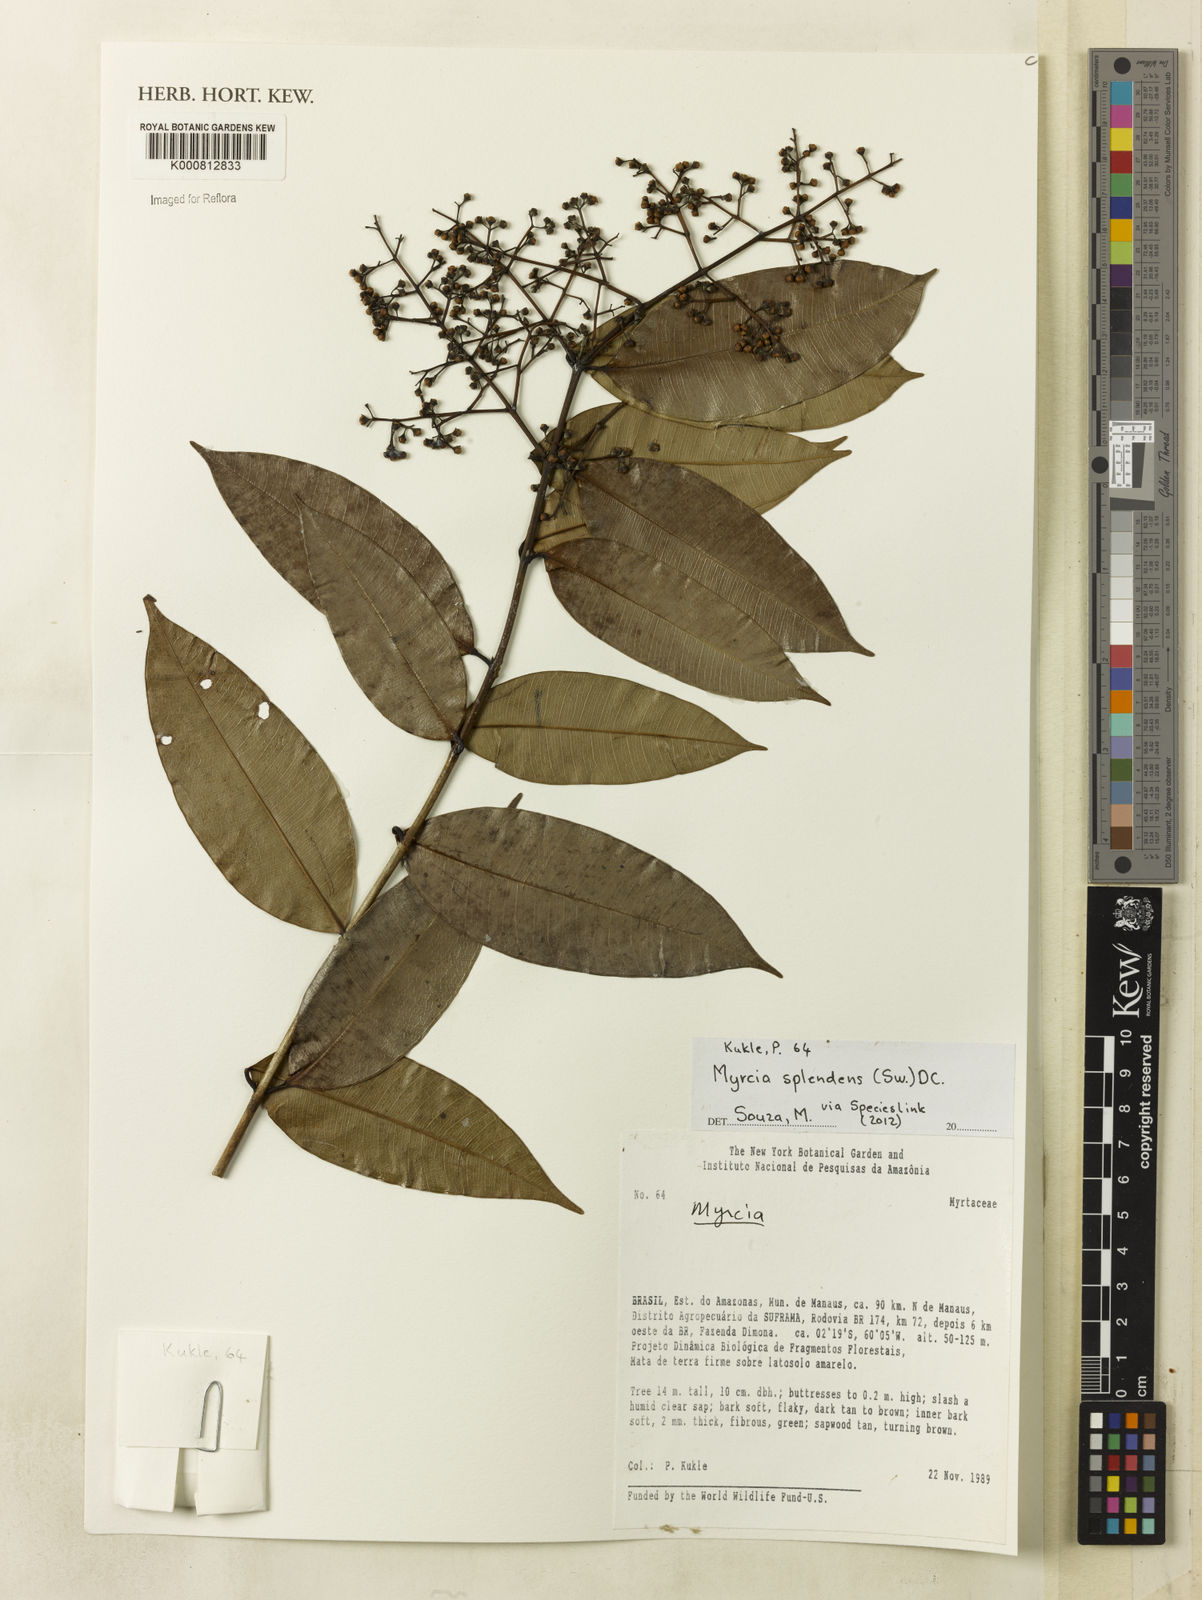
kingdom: Plantae
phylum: Tracheophyta
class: Magnoliopsida
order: Myrtales
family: Myrtaceae
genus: Myrcia
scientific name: Myrcia splendens
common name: Surinam cherry
